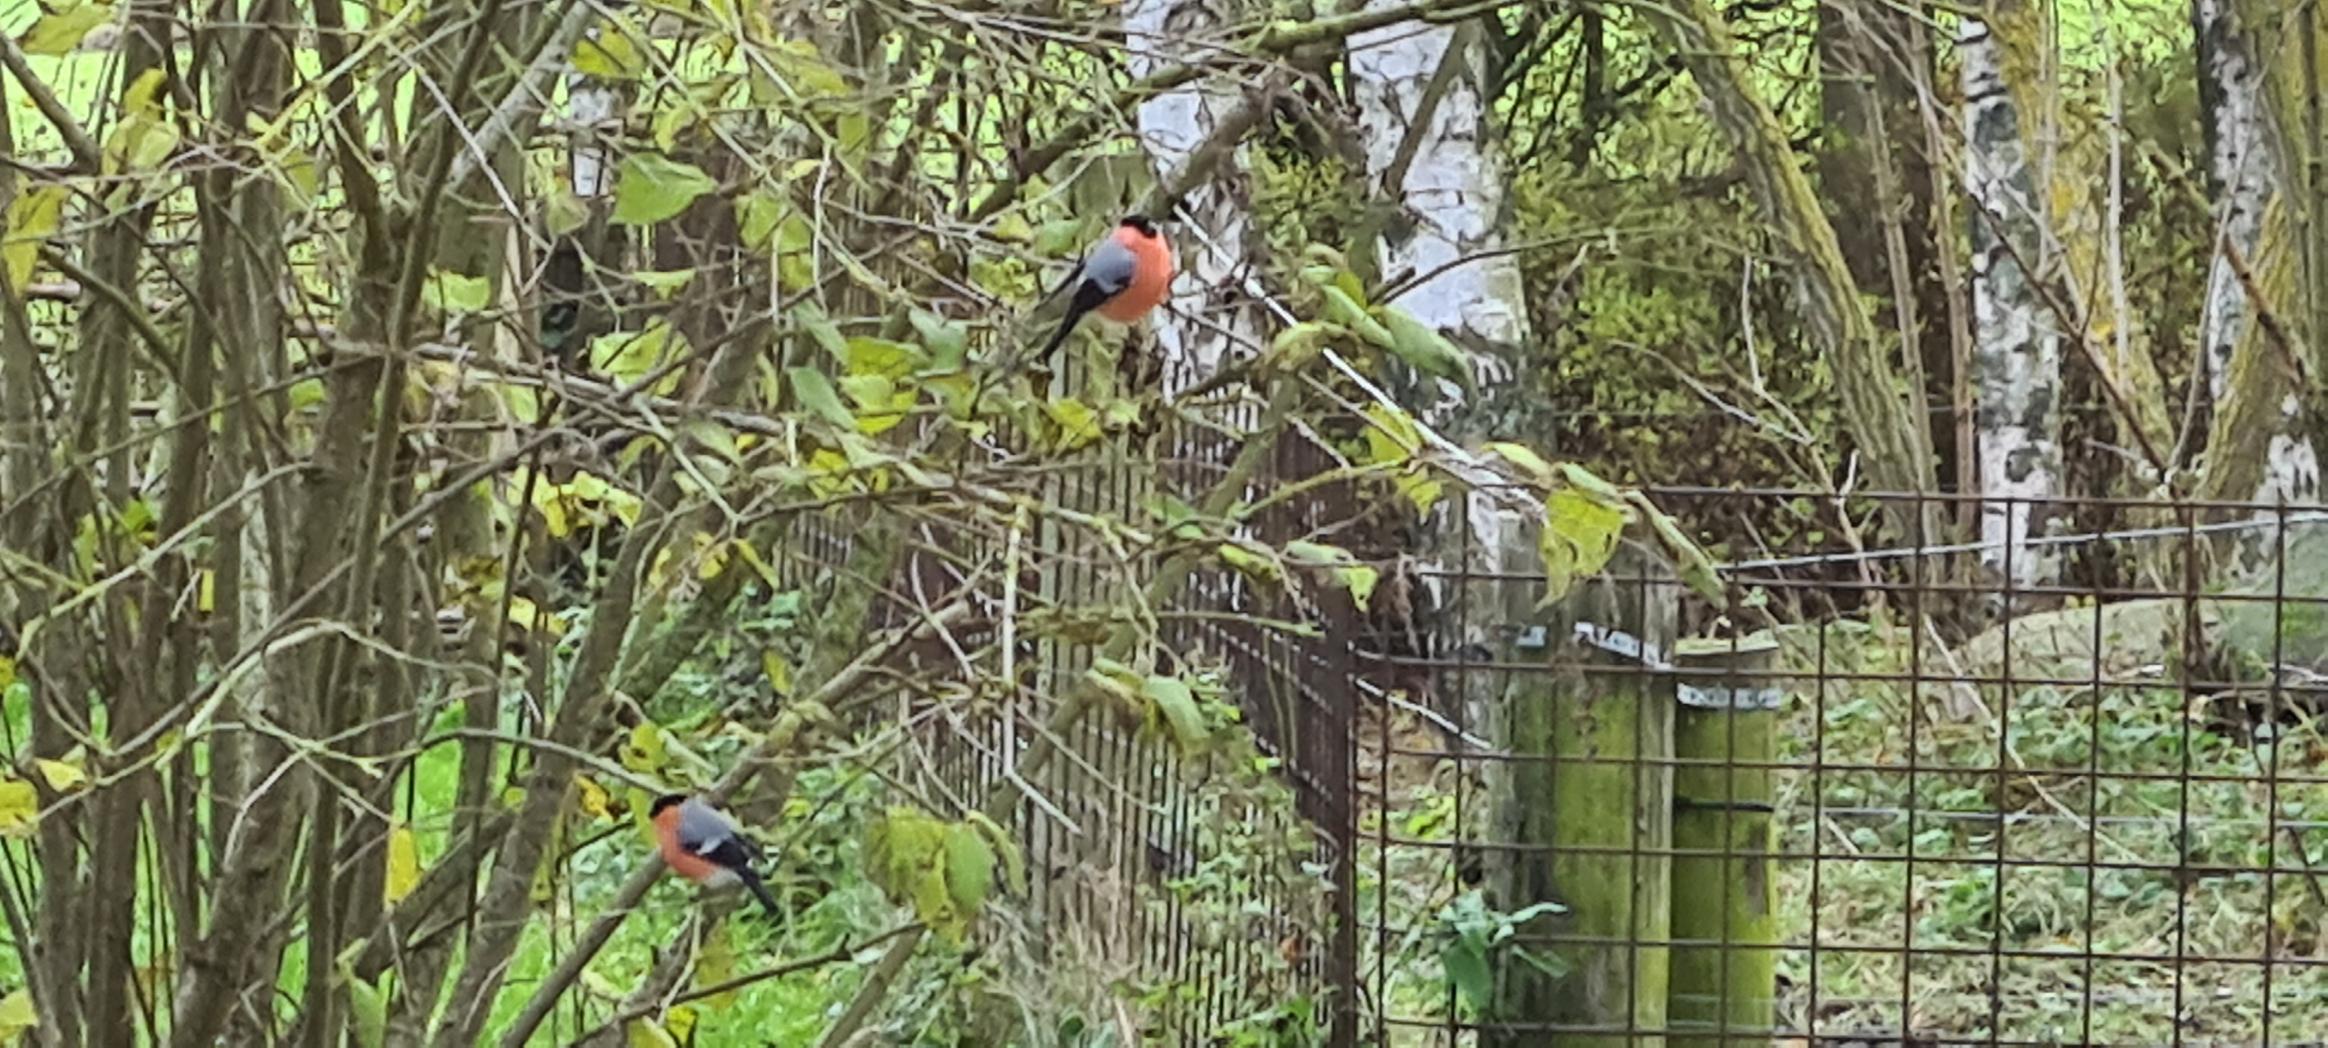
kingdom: Animalia
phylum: Chordata
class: Aves
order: Passeriformes
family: Fringillidae
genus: Pyrrhula
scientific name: Pyrrhula pyrrhula
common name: Dompap
